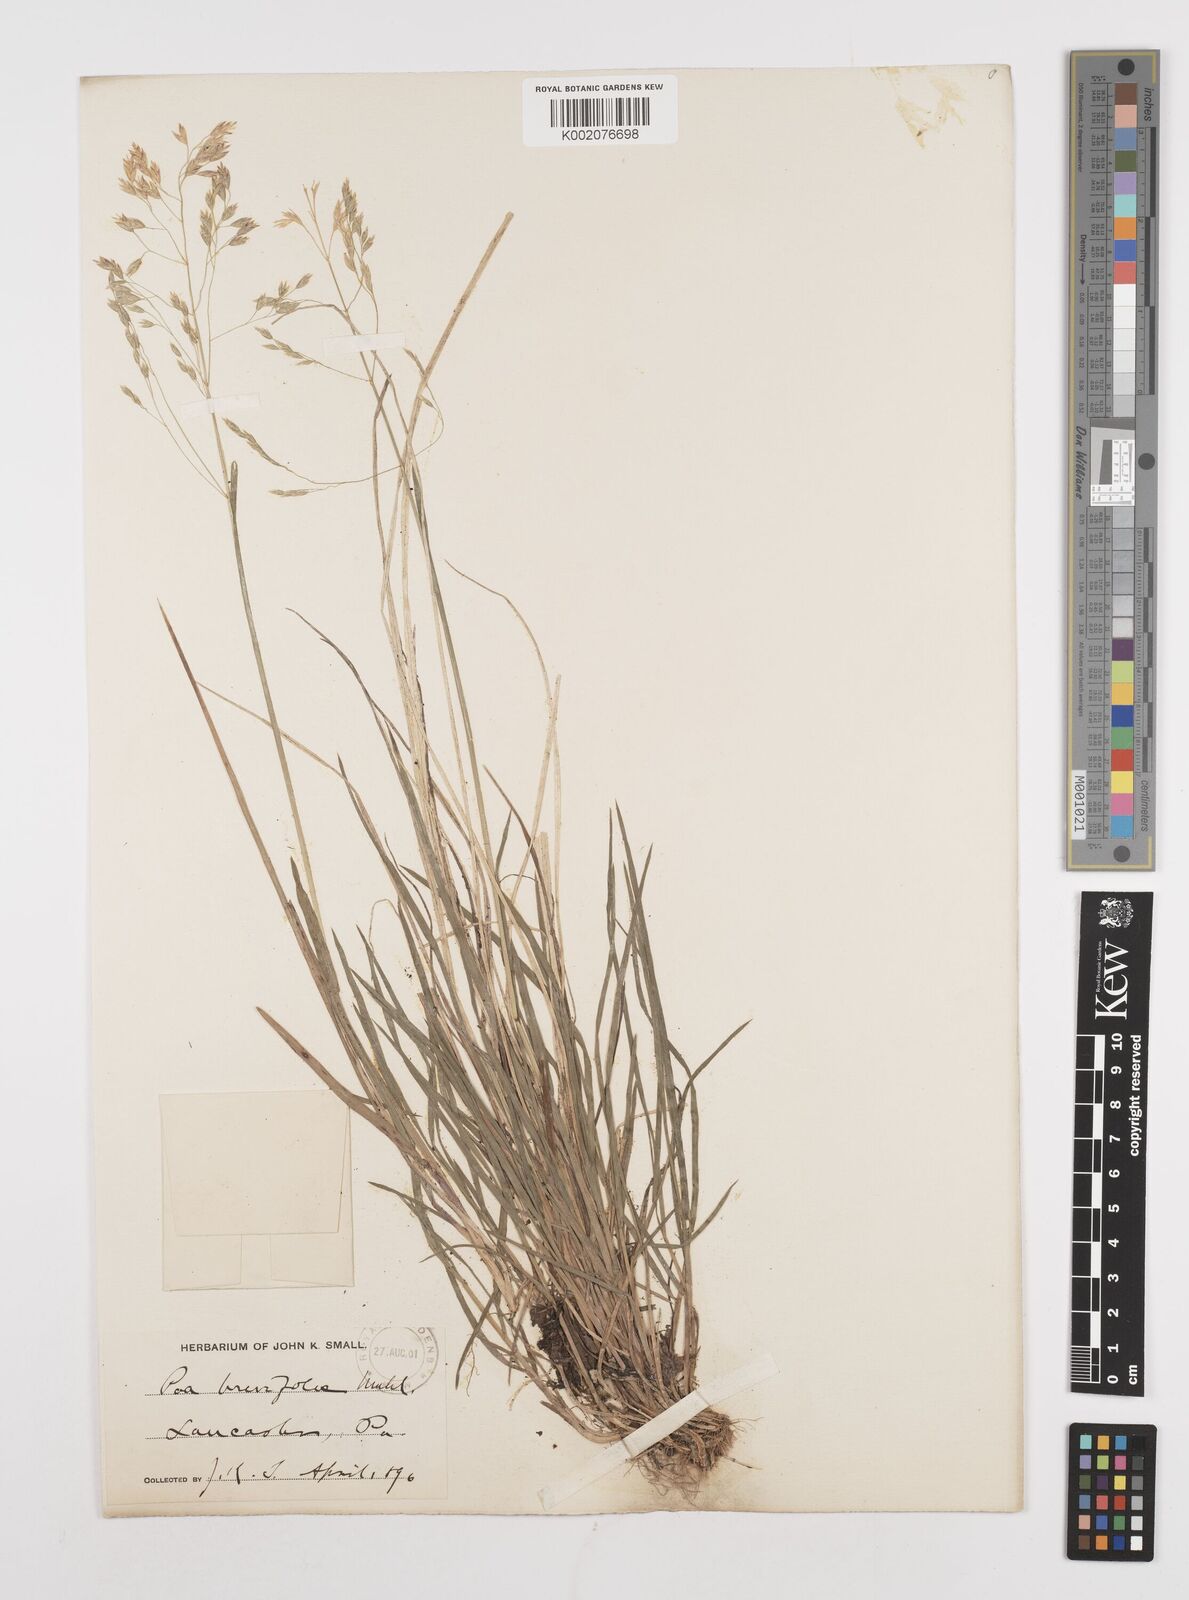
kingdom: Plantae
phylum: Tracheophyta
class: Liliopsida
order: Poales
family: Poaceae
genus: Poa
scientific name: Poa
